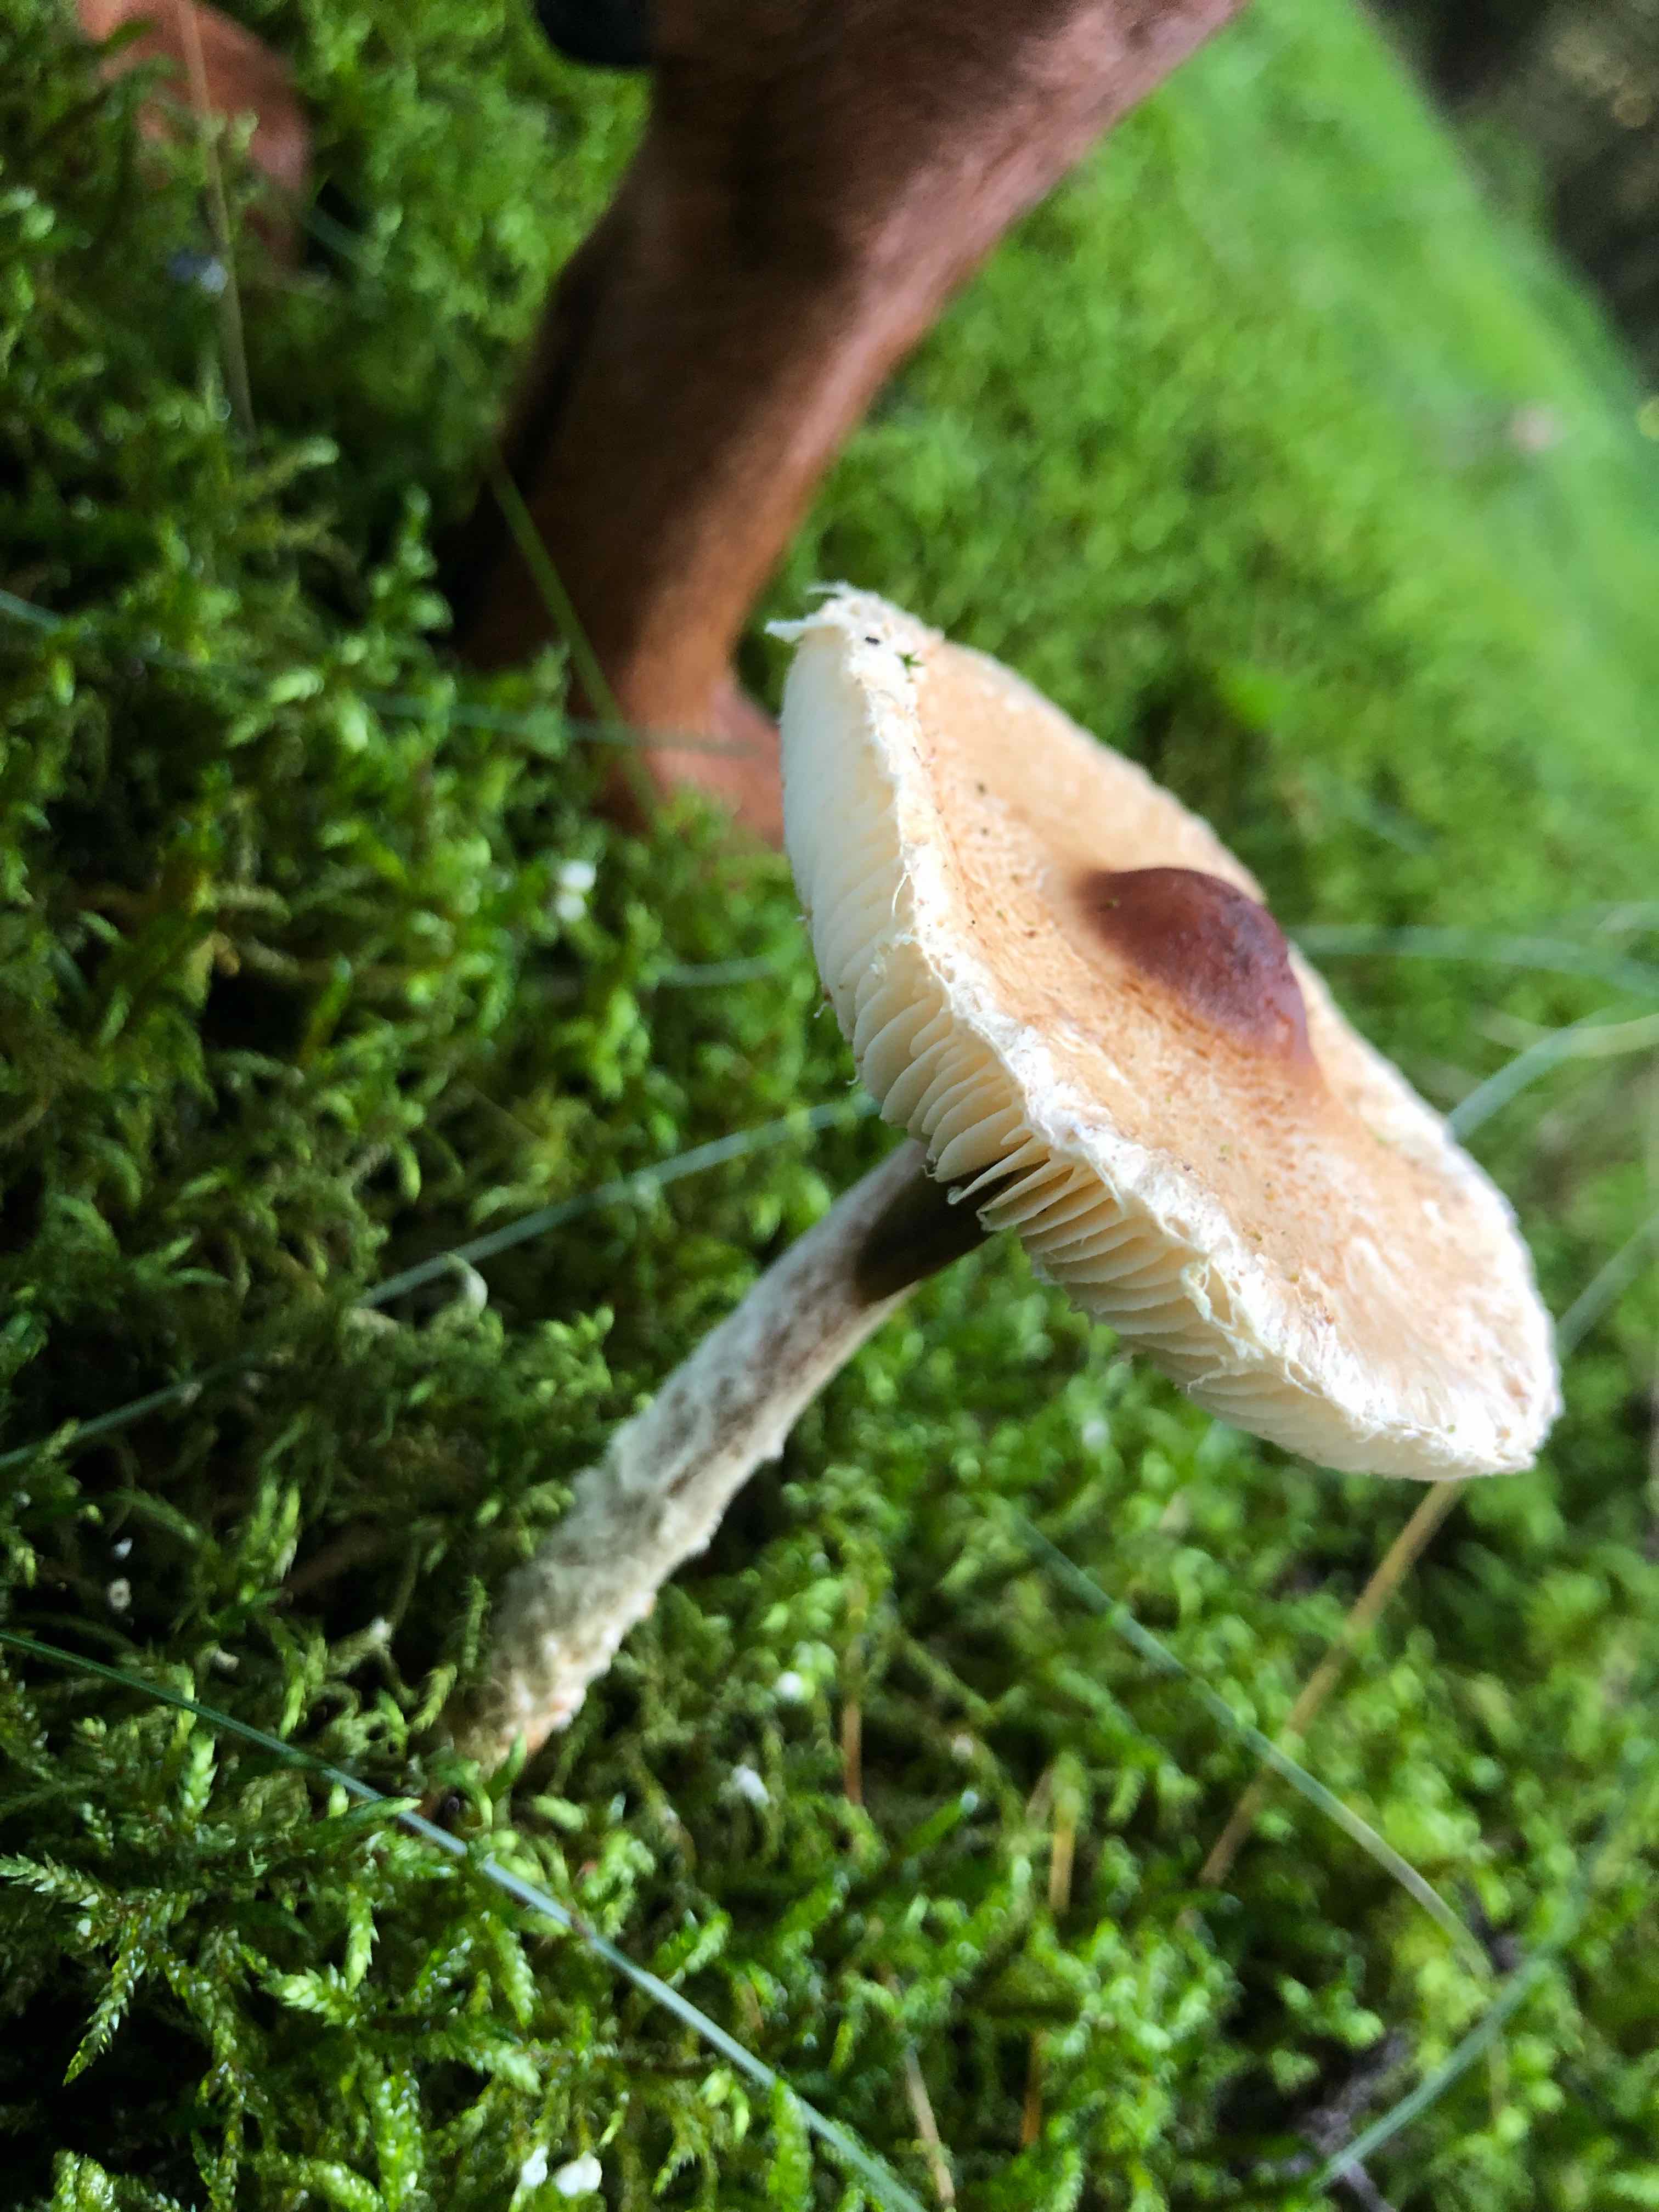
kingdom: Fungi
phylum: Basidiomycota
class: Agaricomycetes
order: Agaricales
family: Agaricaceae
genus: Lepiota
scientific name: Lepiota magnispora
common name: gulfnugget parasolhat
